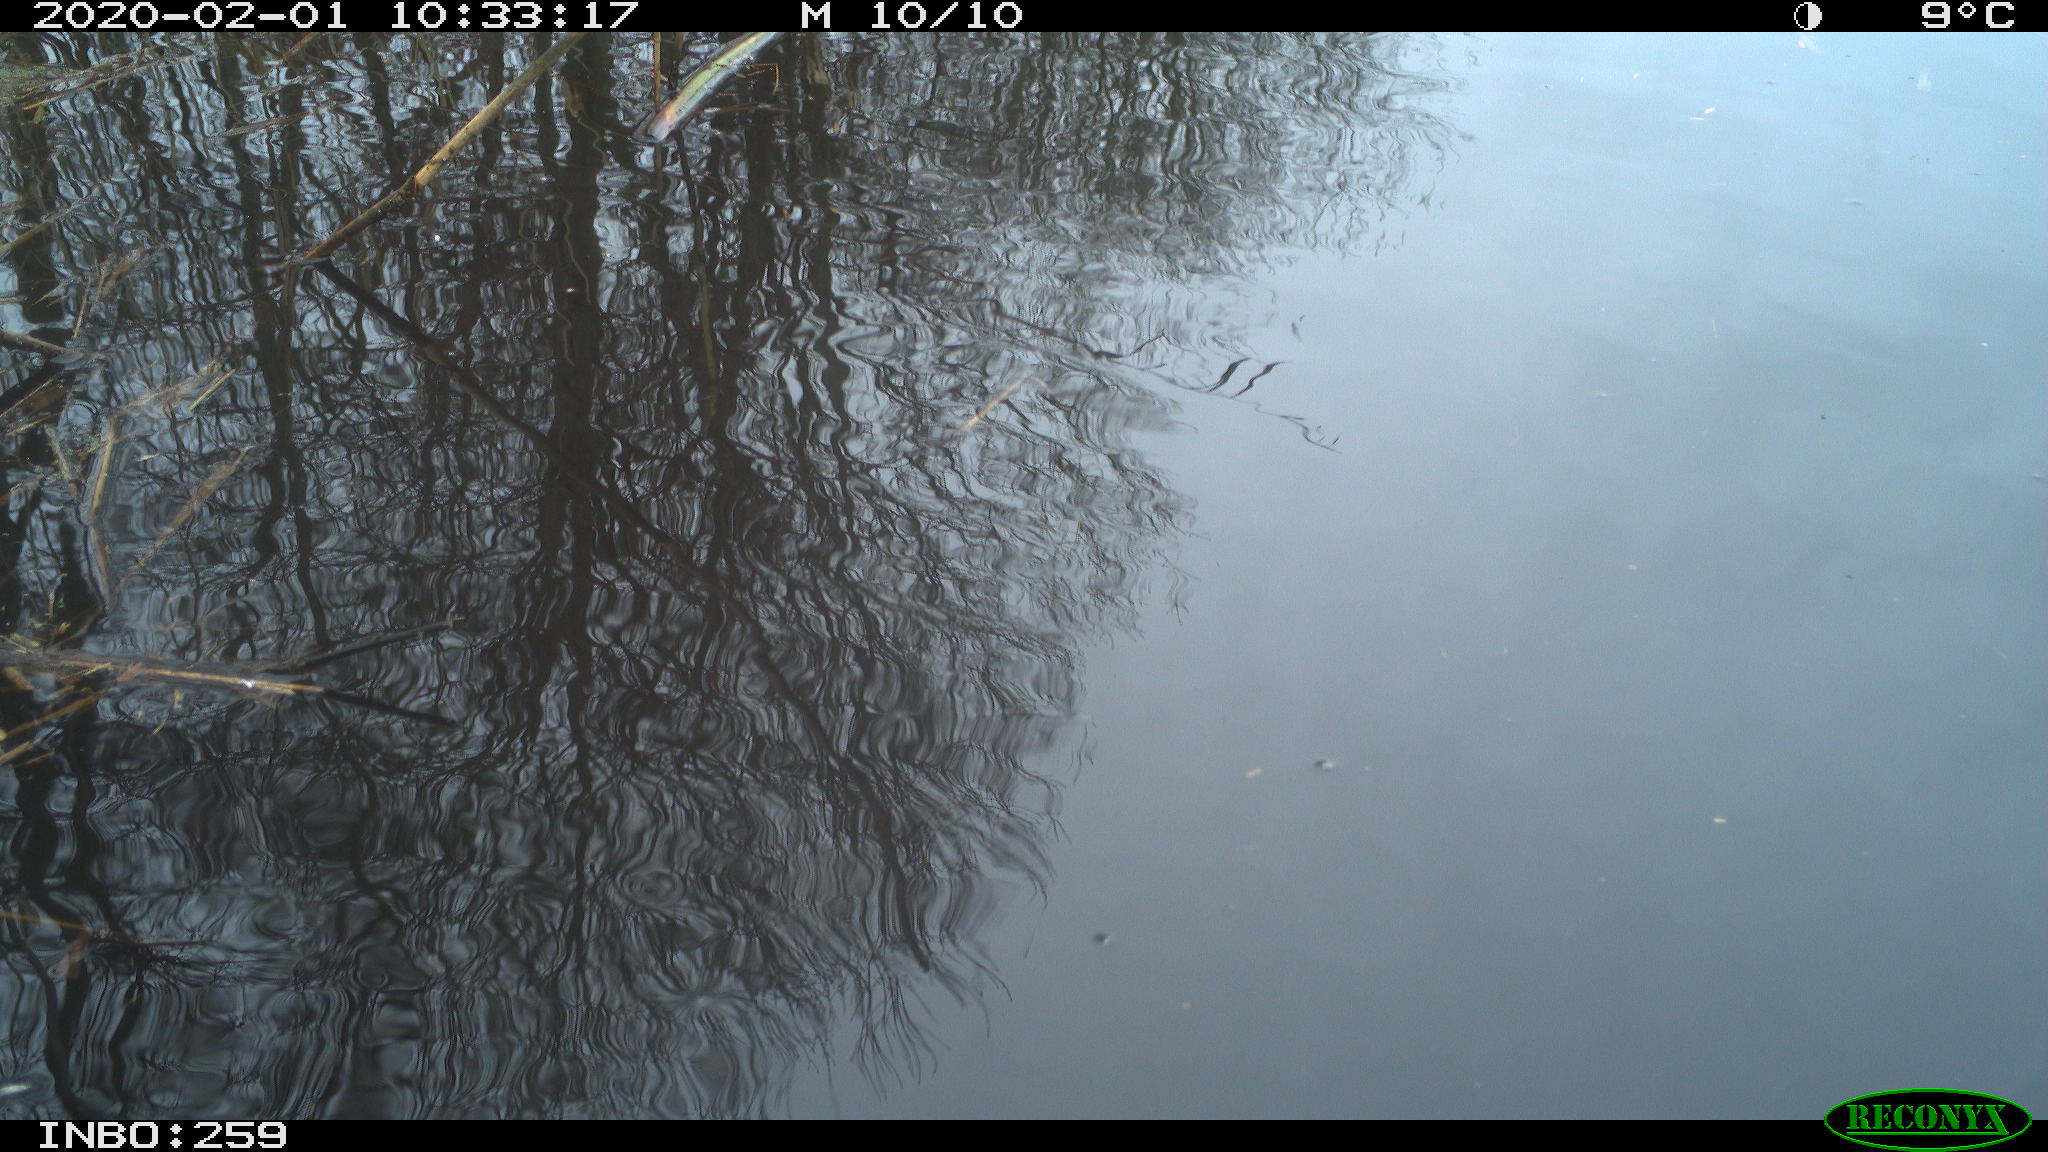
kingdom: Animalia
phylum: Chordata
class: Aves
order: Gruiformes
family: Rallidae
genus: Gallinula
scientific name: Gallinula chloropus
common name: Common moorhen
